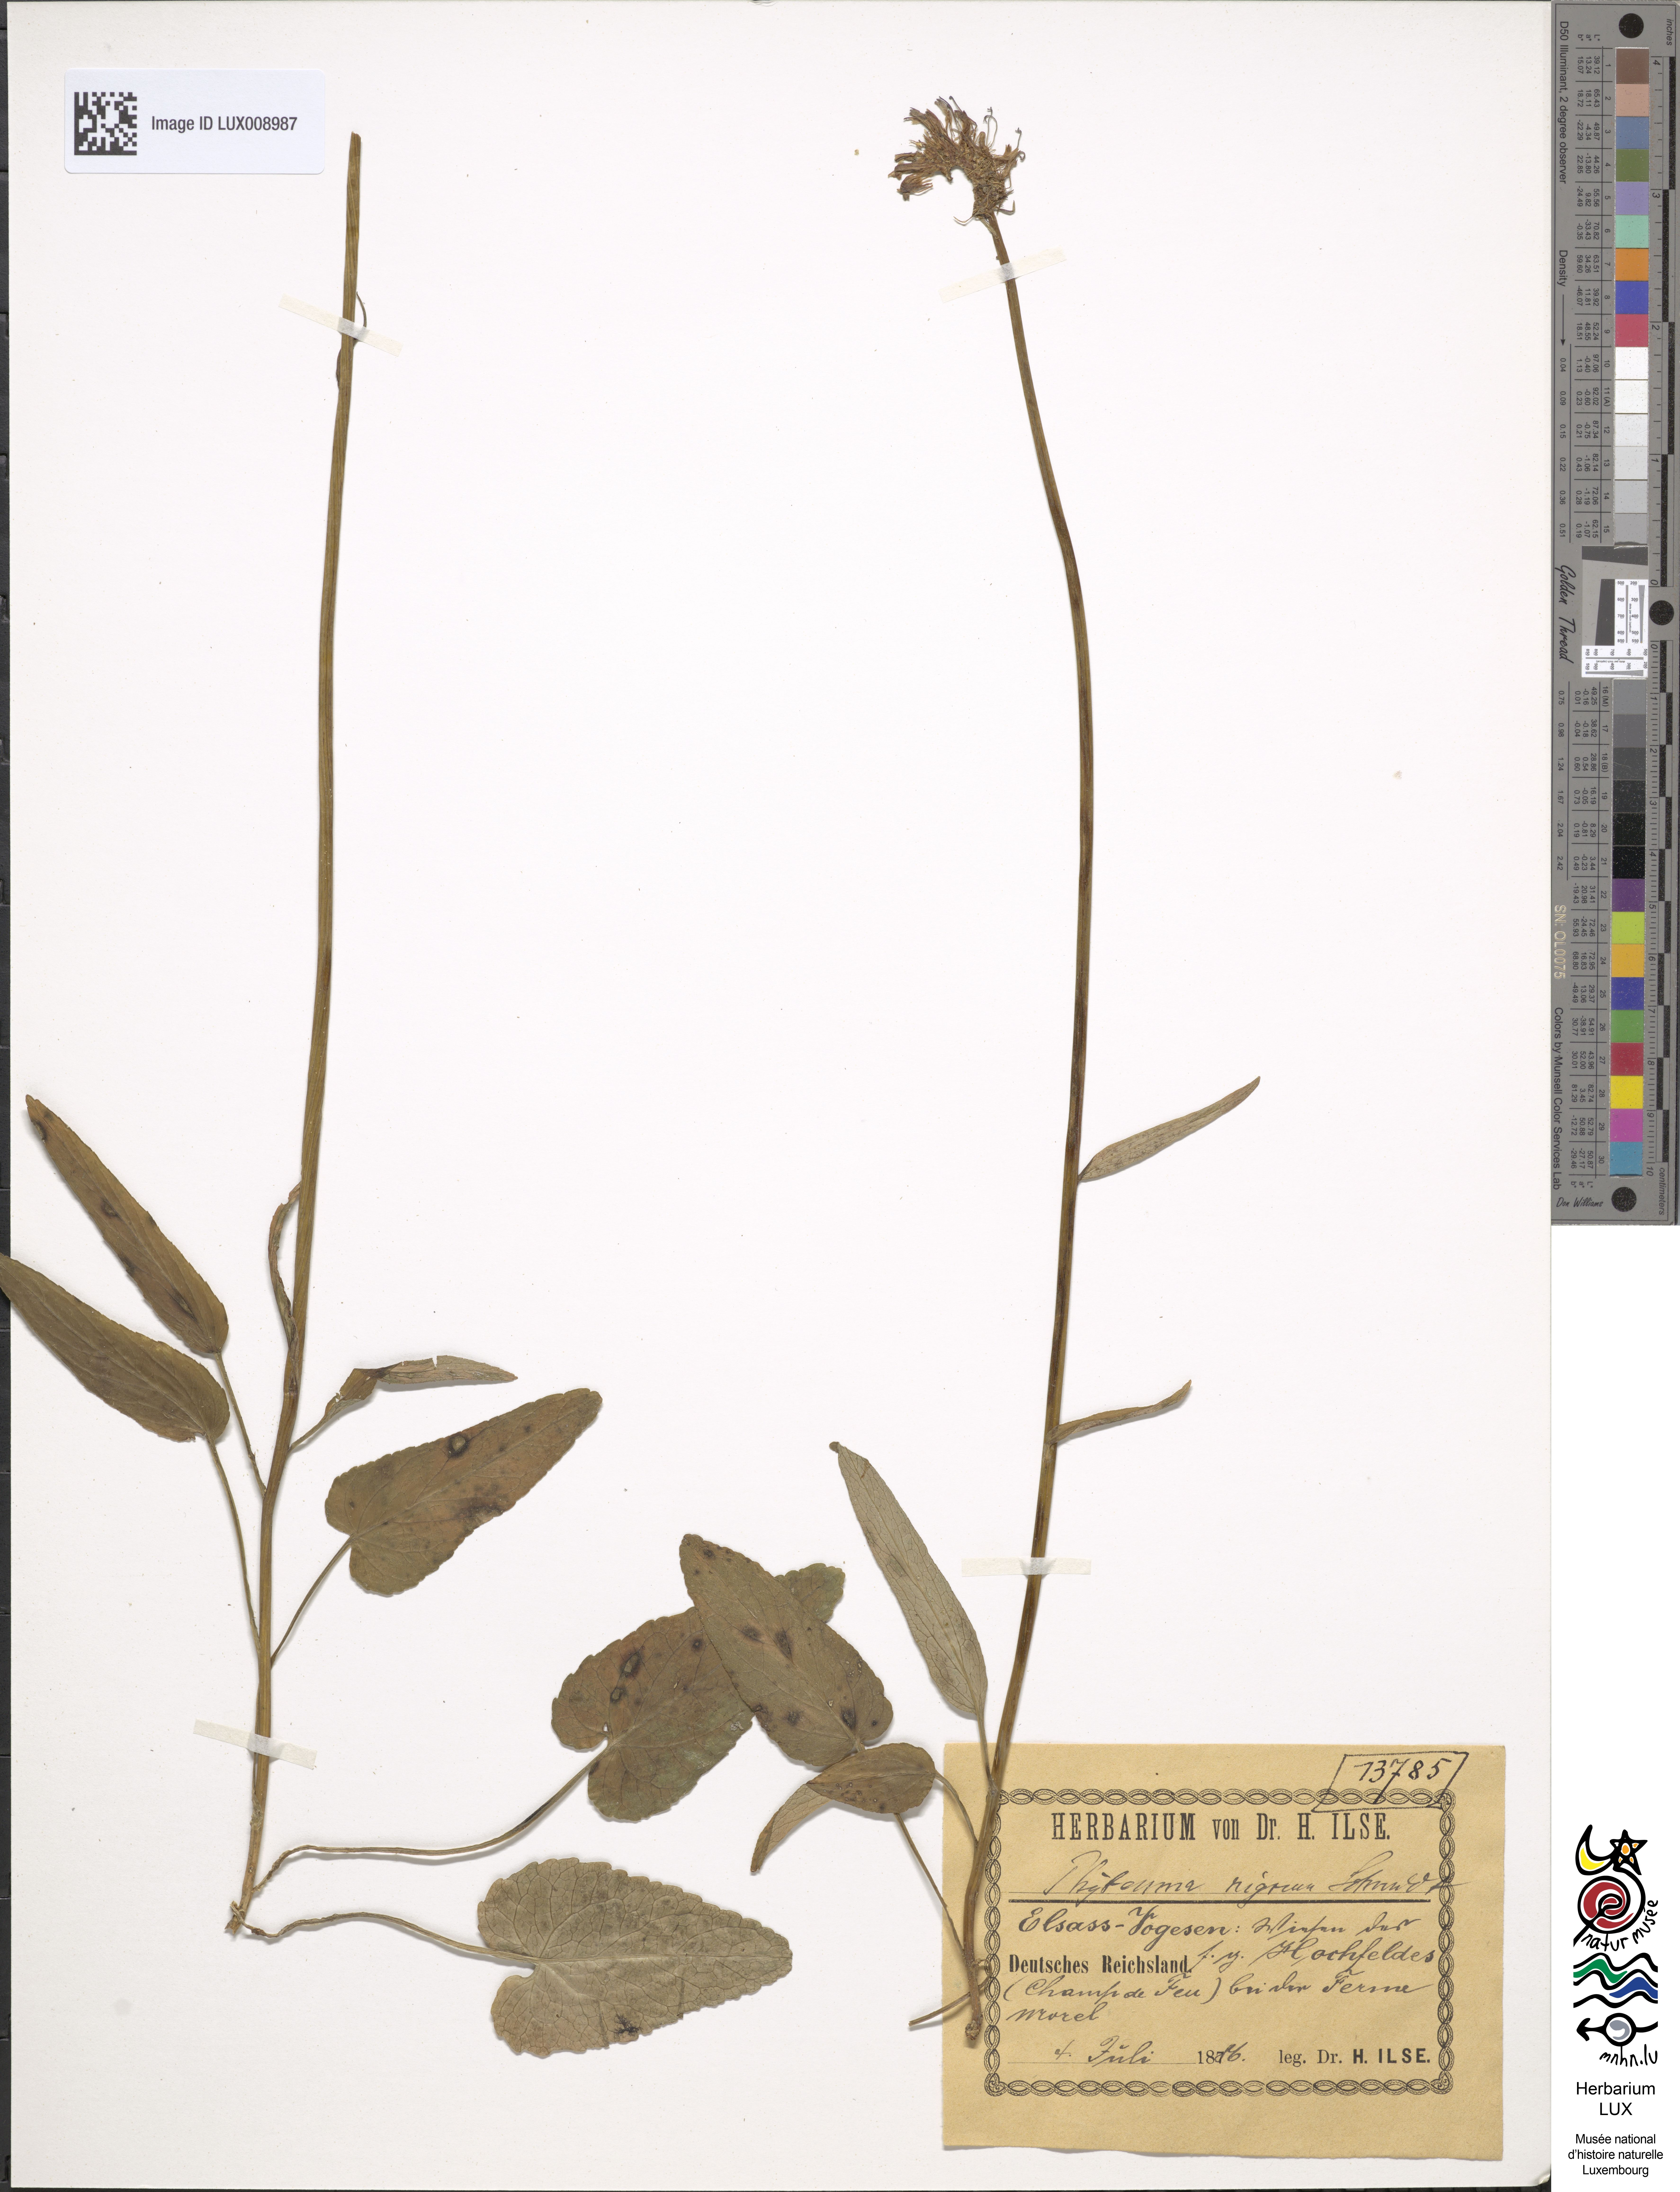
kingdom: Plantae
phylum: Tracheophyta
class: Magnoliopsida
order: Asterales
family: Campanulaceae
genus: Phyteuma
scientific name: Phyteuma nigrum
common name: Black rampion
